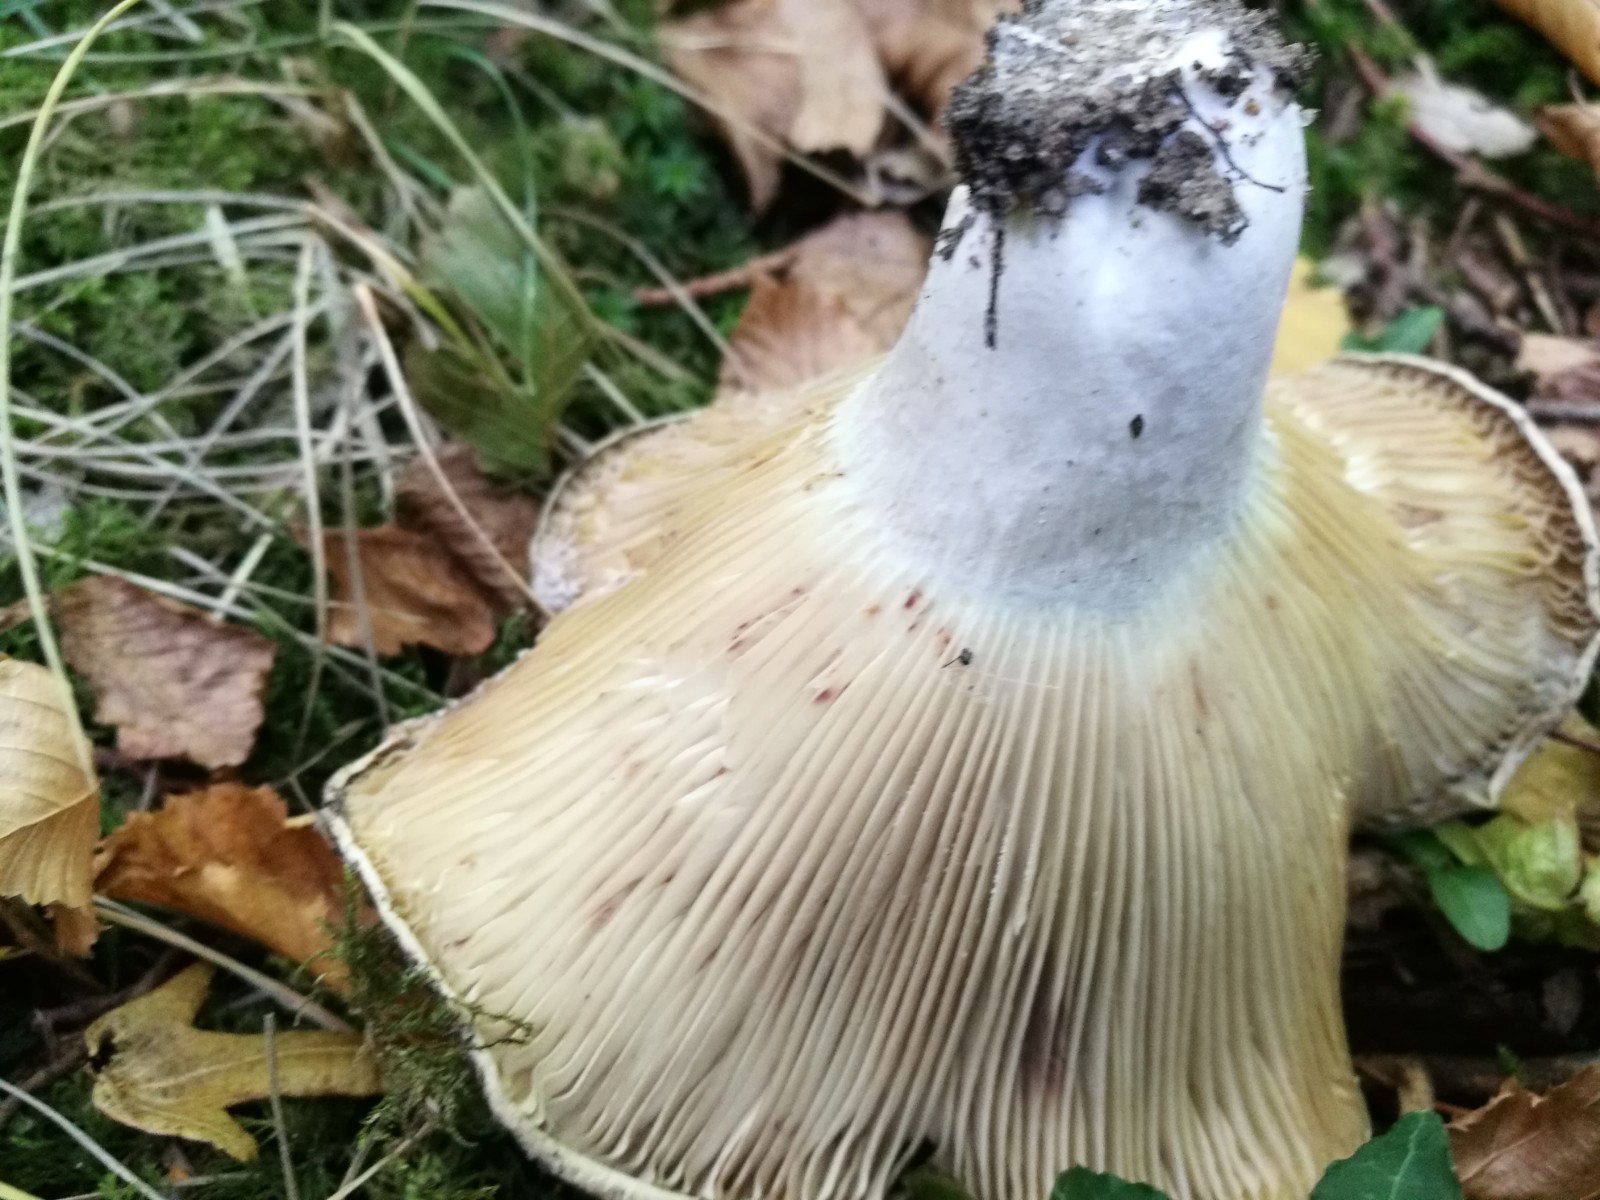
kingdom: Fungi
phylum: Basidiomycota
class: Agaricomycetes
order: Russulales
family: Russulaceae
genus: Russula
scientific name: Russula chloroides
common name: grønhalset tragt-skørhat
